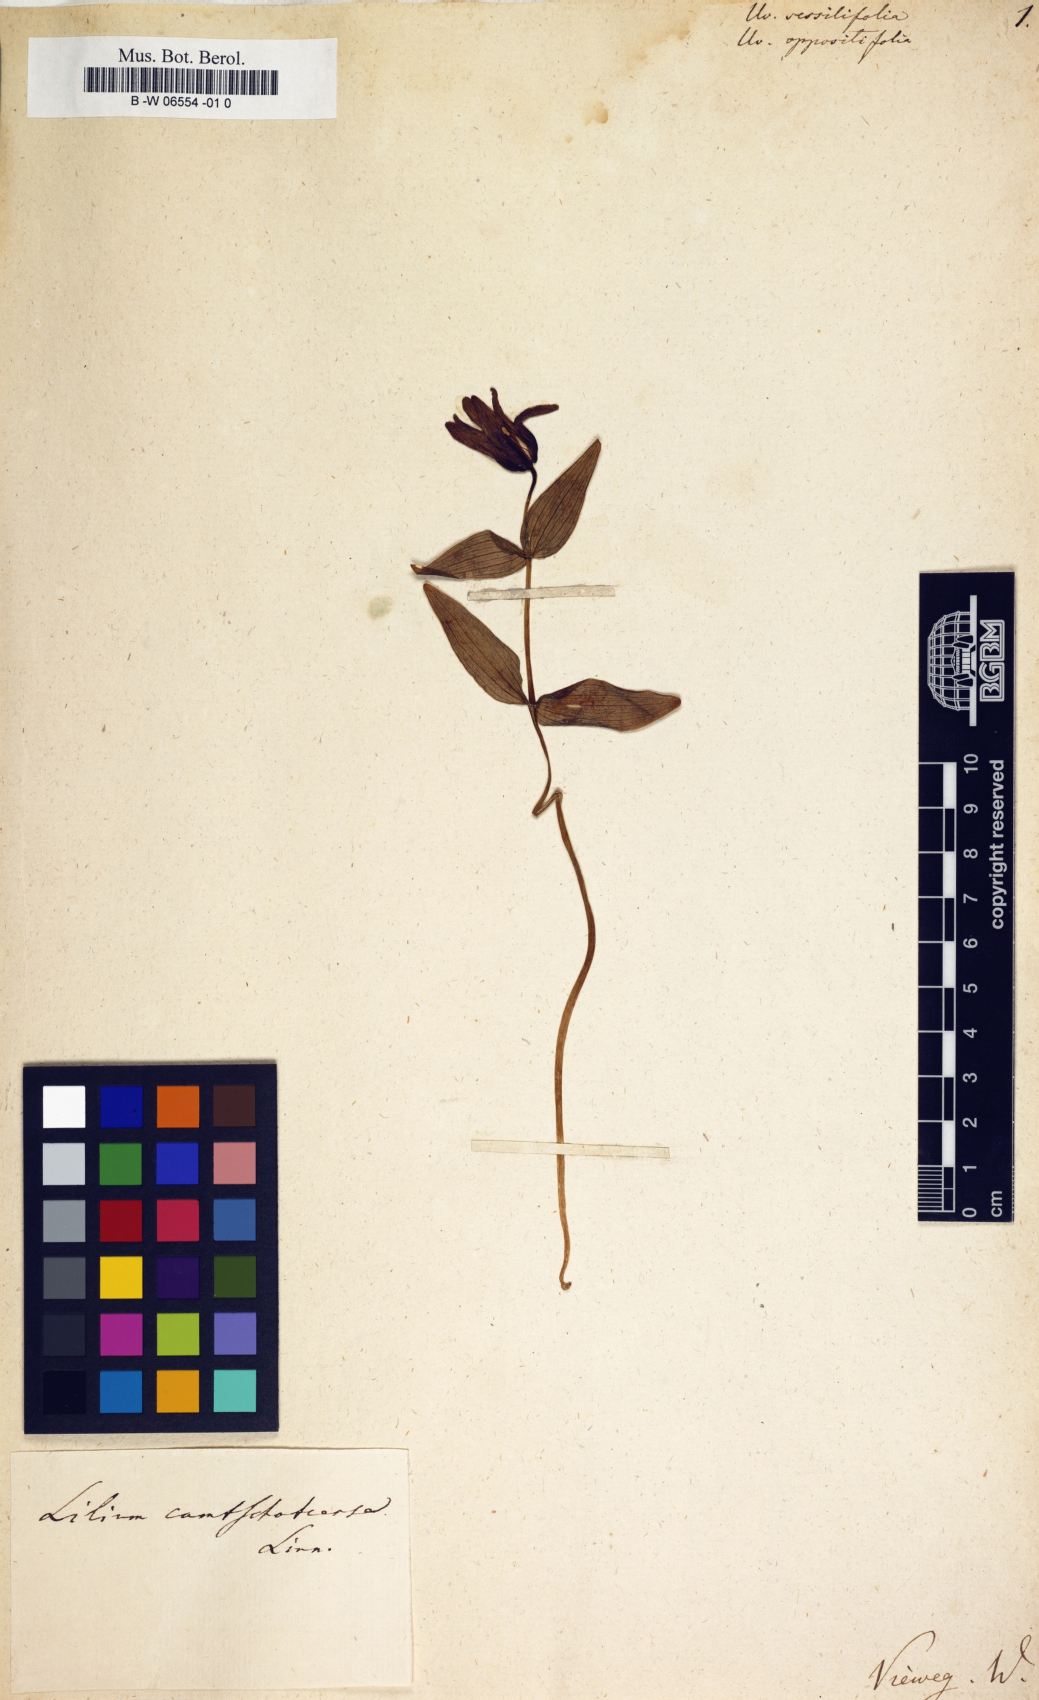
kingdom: Plantae
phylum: Tracheophyta
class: Liliopsida
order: Liliales
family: Colchicaceae
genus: Uvularia
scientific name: Uvularia sessilifolia
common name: Straw-lily
